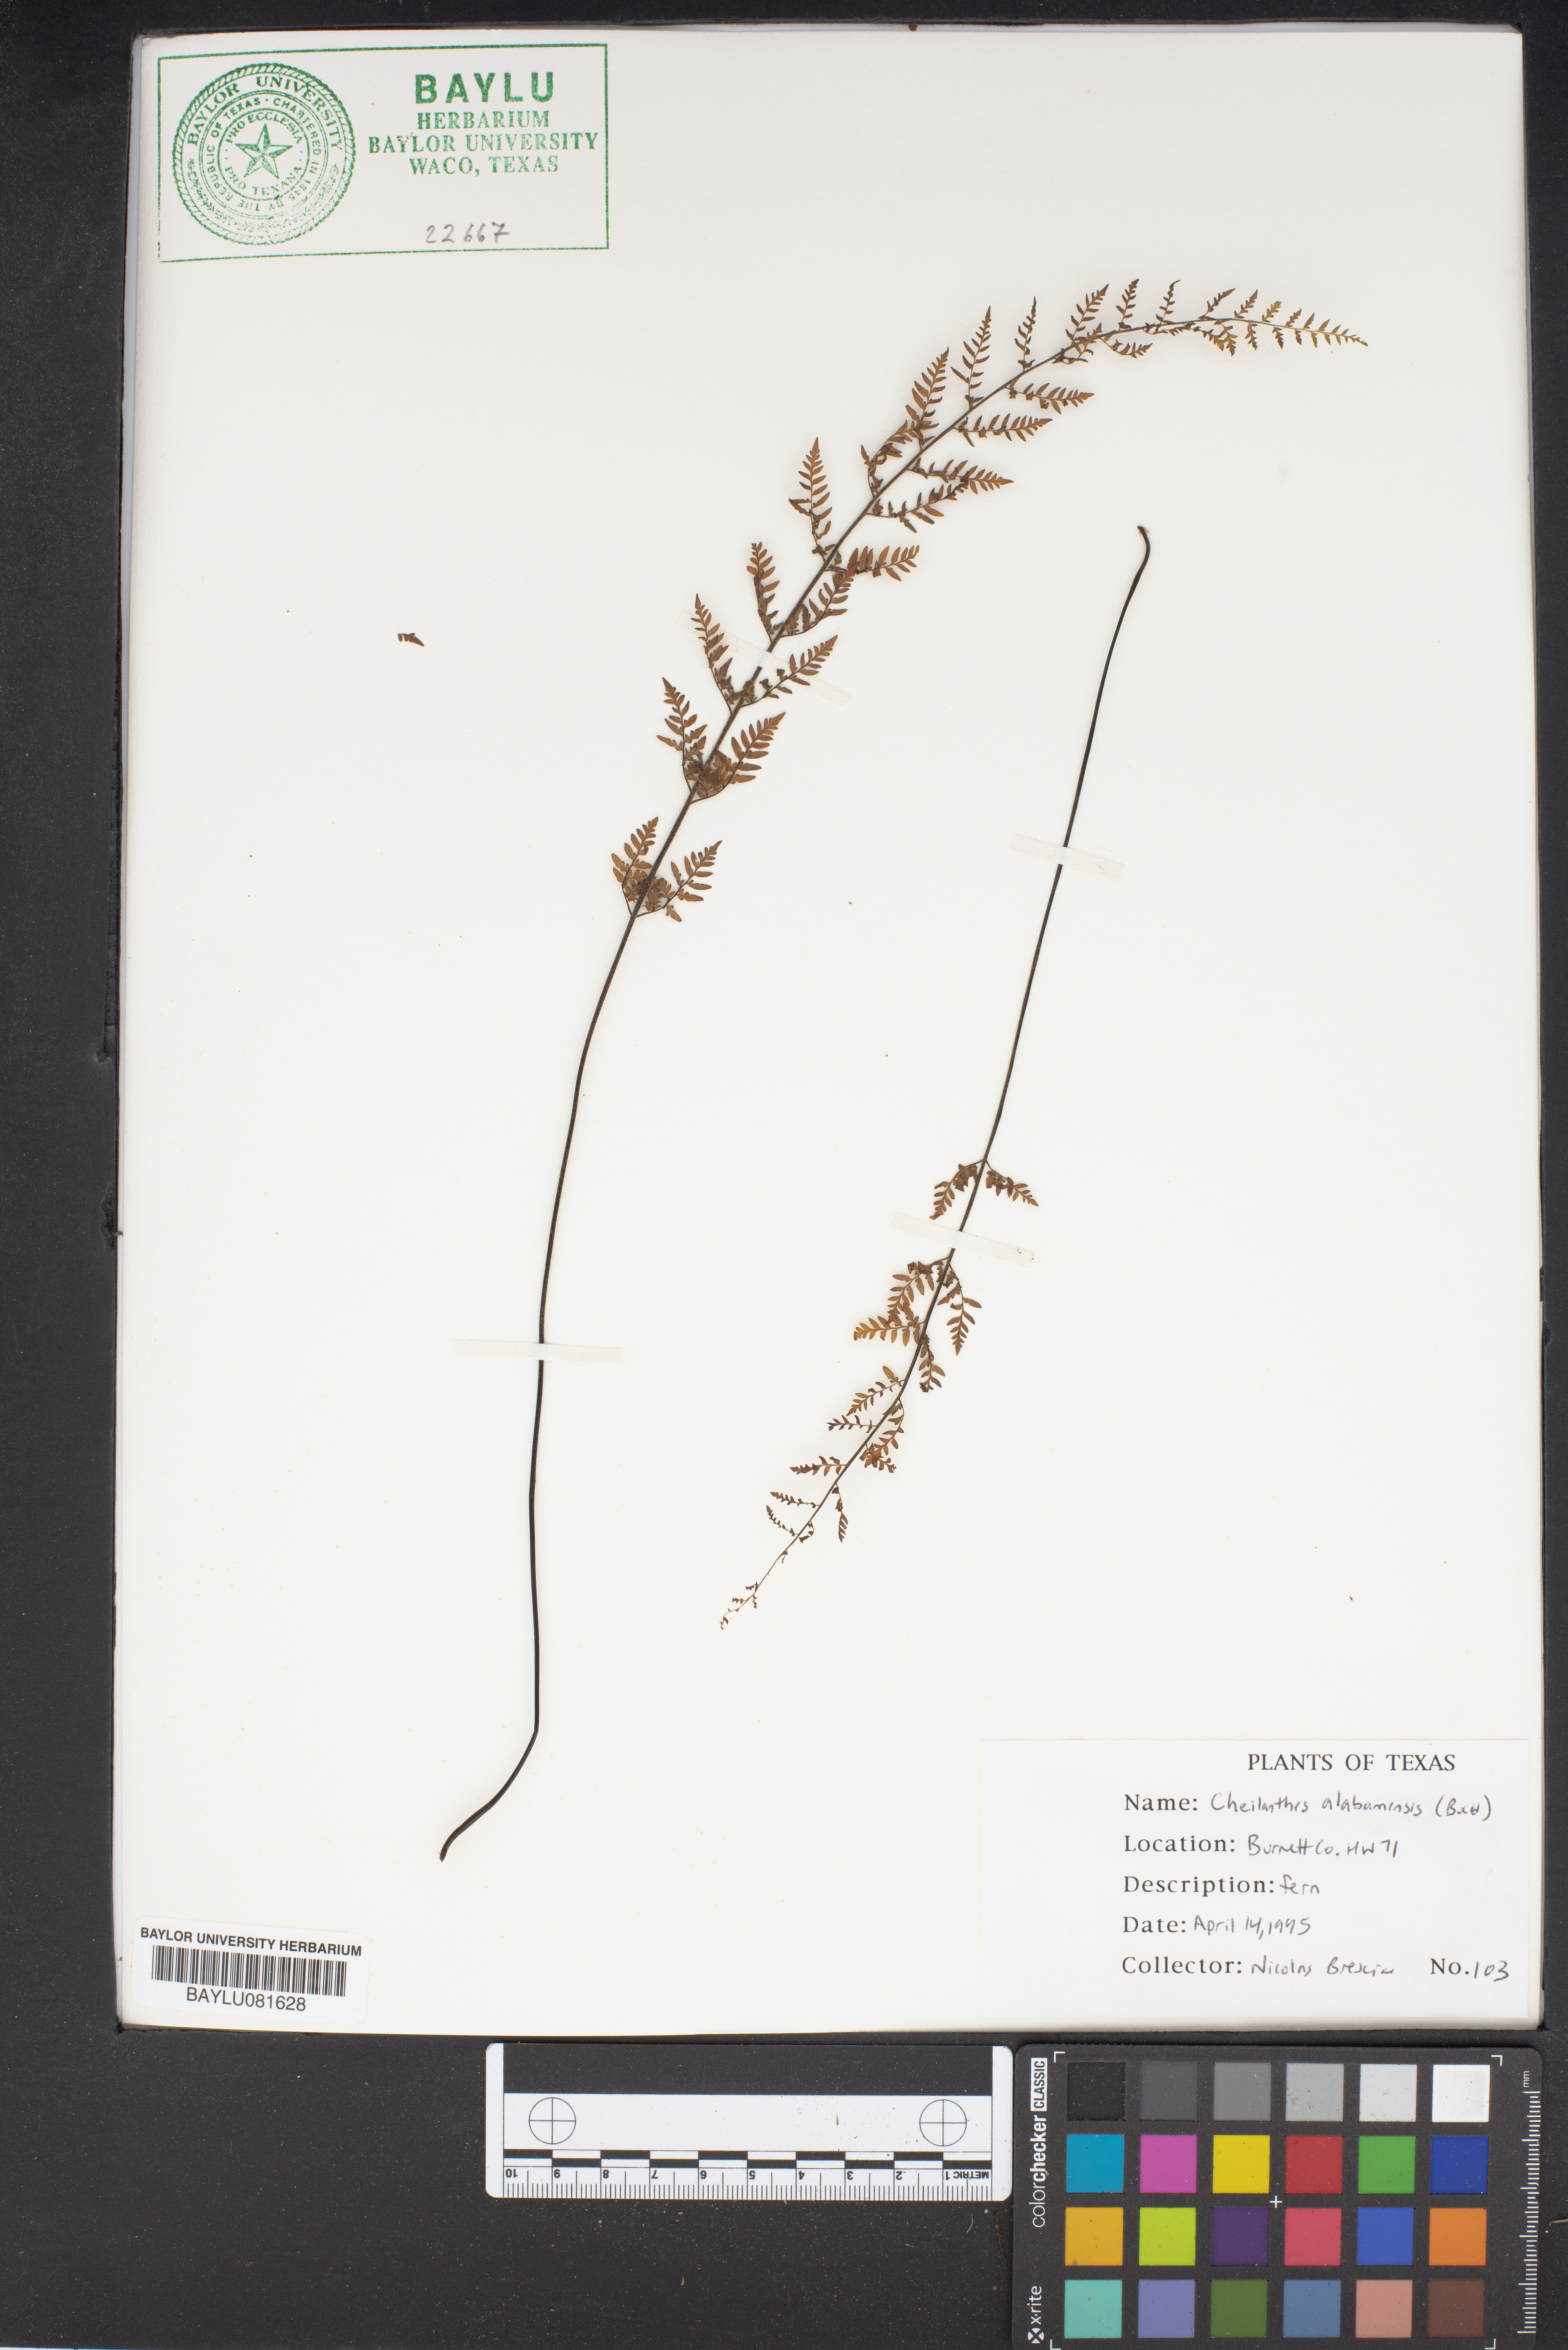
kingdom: Plantae
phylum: Tracheophyta
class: Polypodiopsida
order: Polypodiales
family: Pteridaceae
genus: Myriopteris
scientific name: Myriopteris alabamensis
